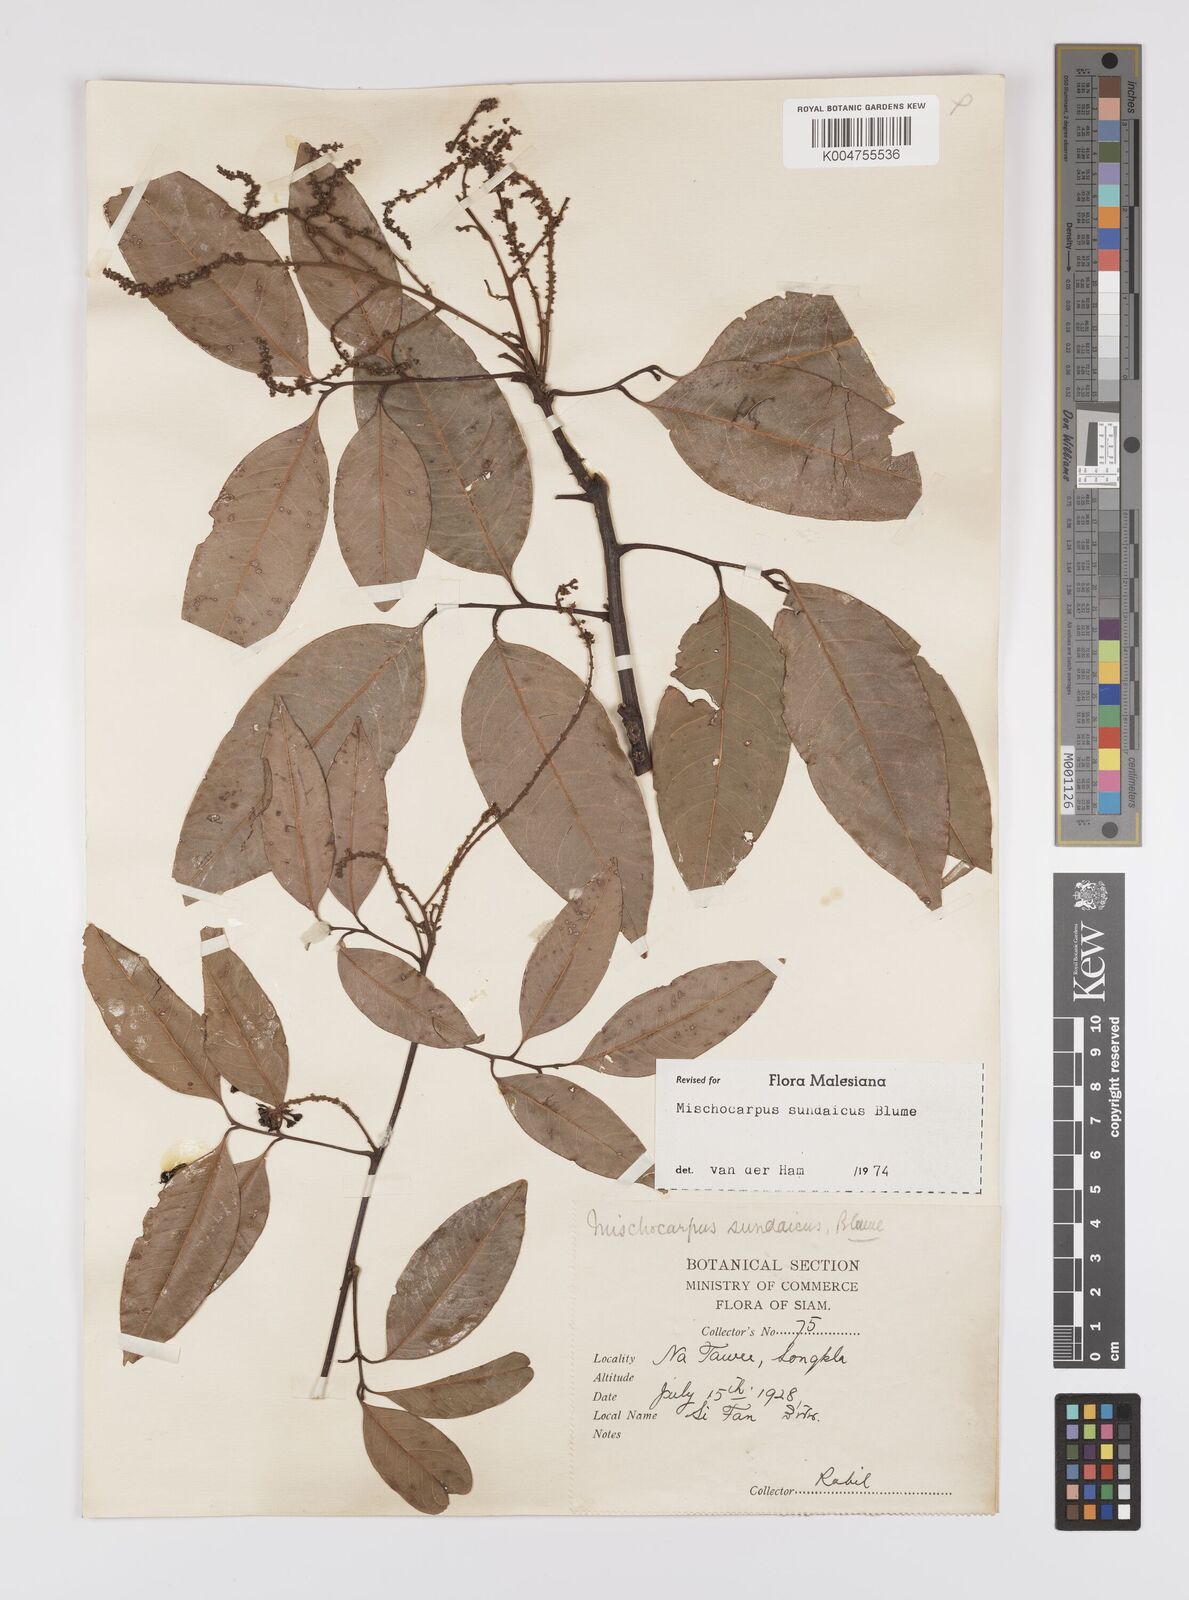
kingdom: Plantae
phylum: Tracheophyta
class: Magnoliopsida
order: Sapindales
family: Sapindaceae
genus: Mischocarpus
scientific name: Mischocarpus sundaicus
